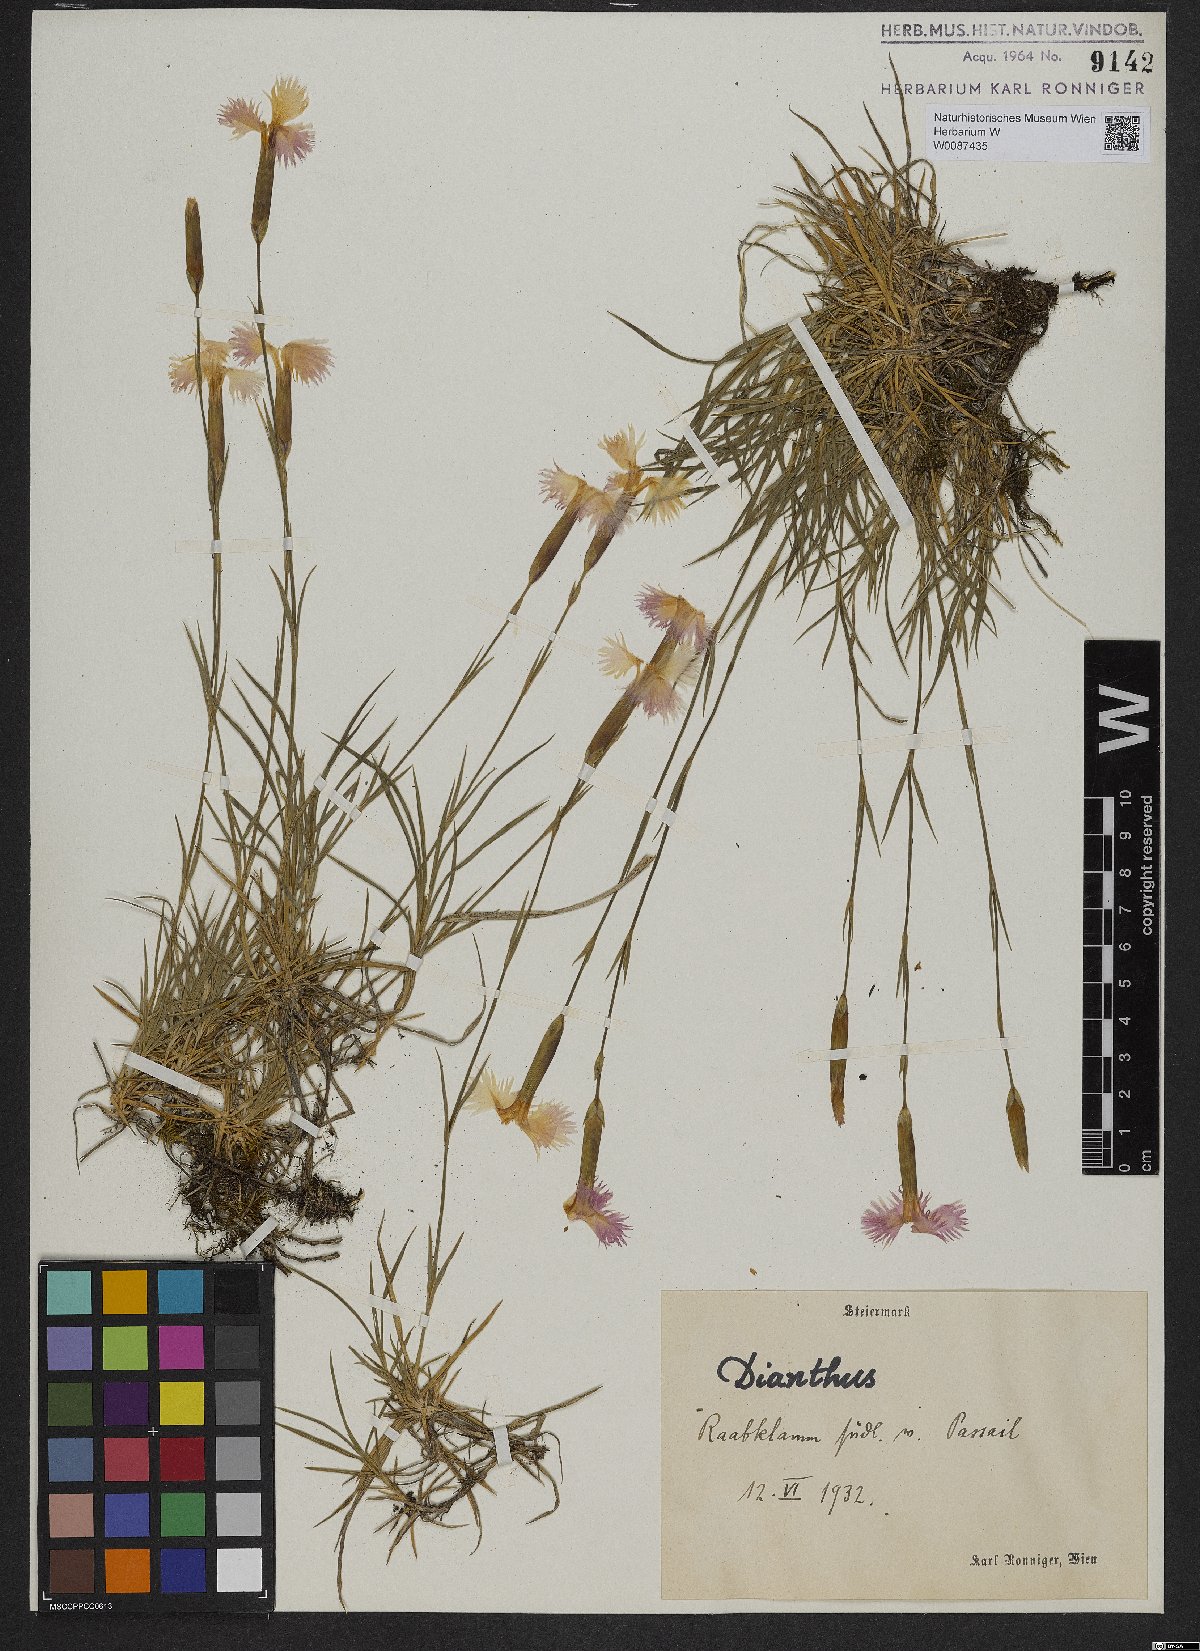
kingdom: Plantae
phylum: Tracheophyta
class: Magnoliopsida
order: Caryophyllales
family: Caryophyllaceae
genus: Dianthus
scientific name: Dianthus plumarius
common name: Pink
